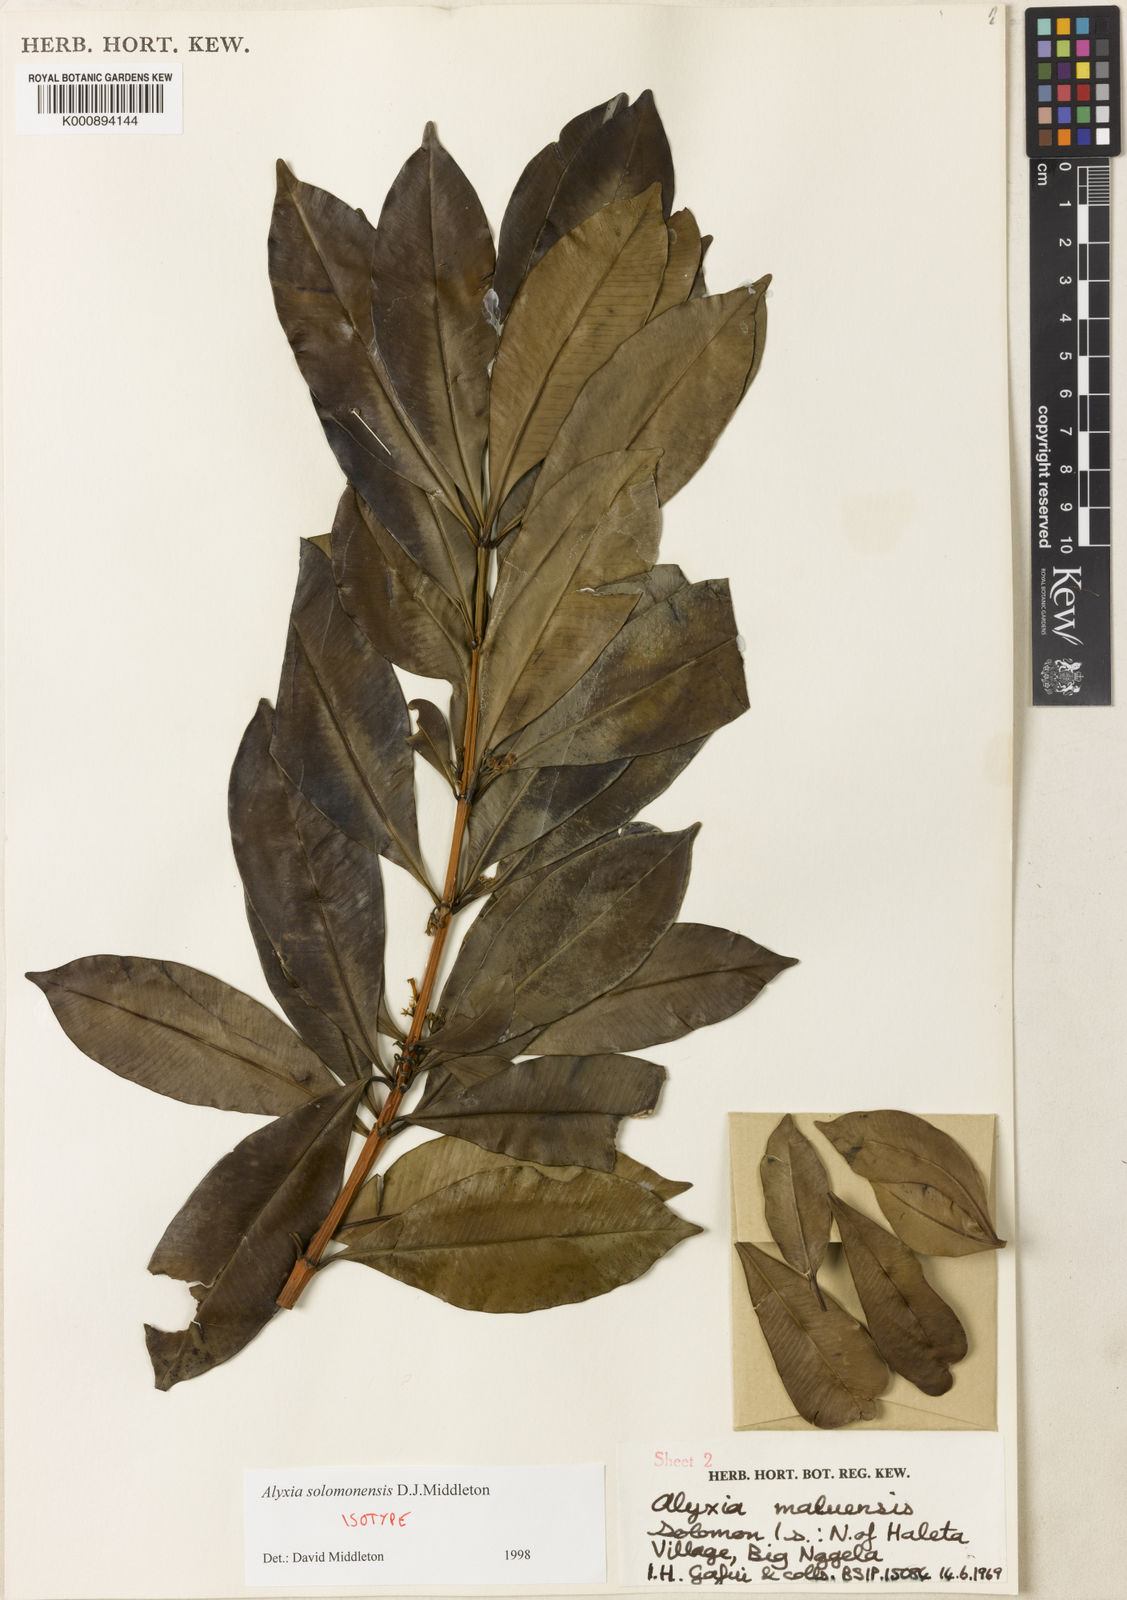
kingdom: Plantae
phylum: Tracheophyta
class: Magnoliopsida
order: Gentianales
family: Apocynaceae
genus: Alyxia
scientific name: Alyxia solomonensis
